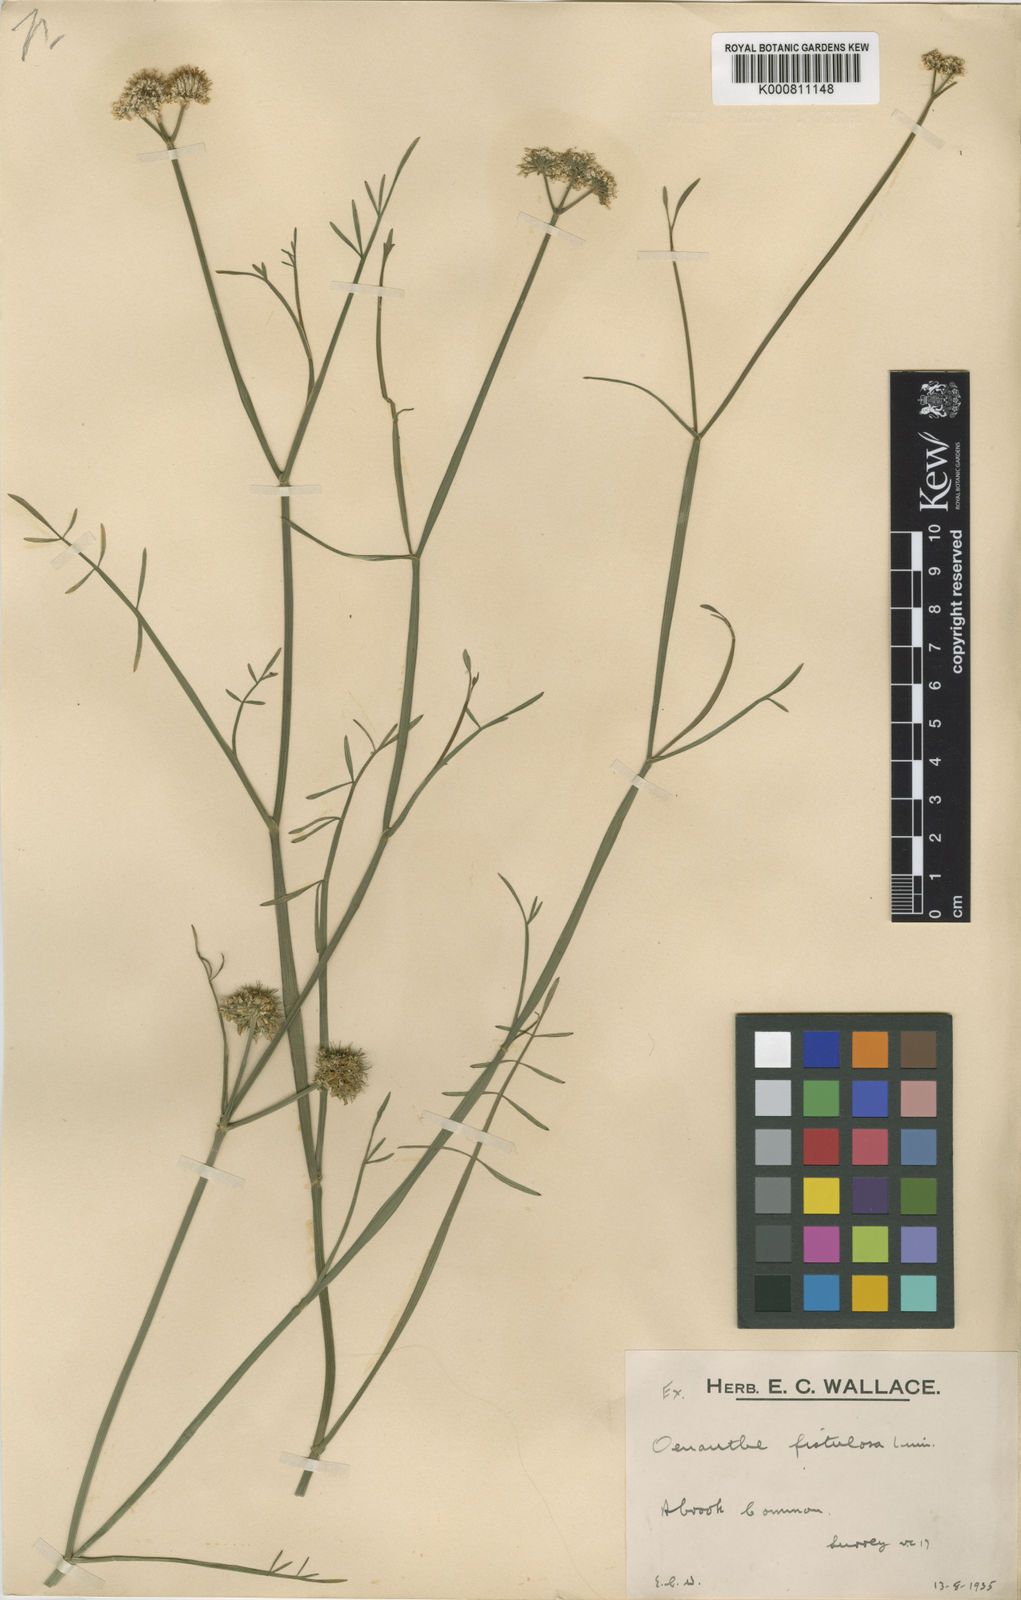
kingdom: Plantae
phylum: Tracheophyta
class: Magnoliopsida
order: Apiales
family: Apiaceae
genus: Oenanthe
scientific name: Oenanthe fistulosa
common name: Tubular water-dropwort
